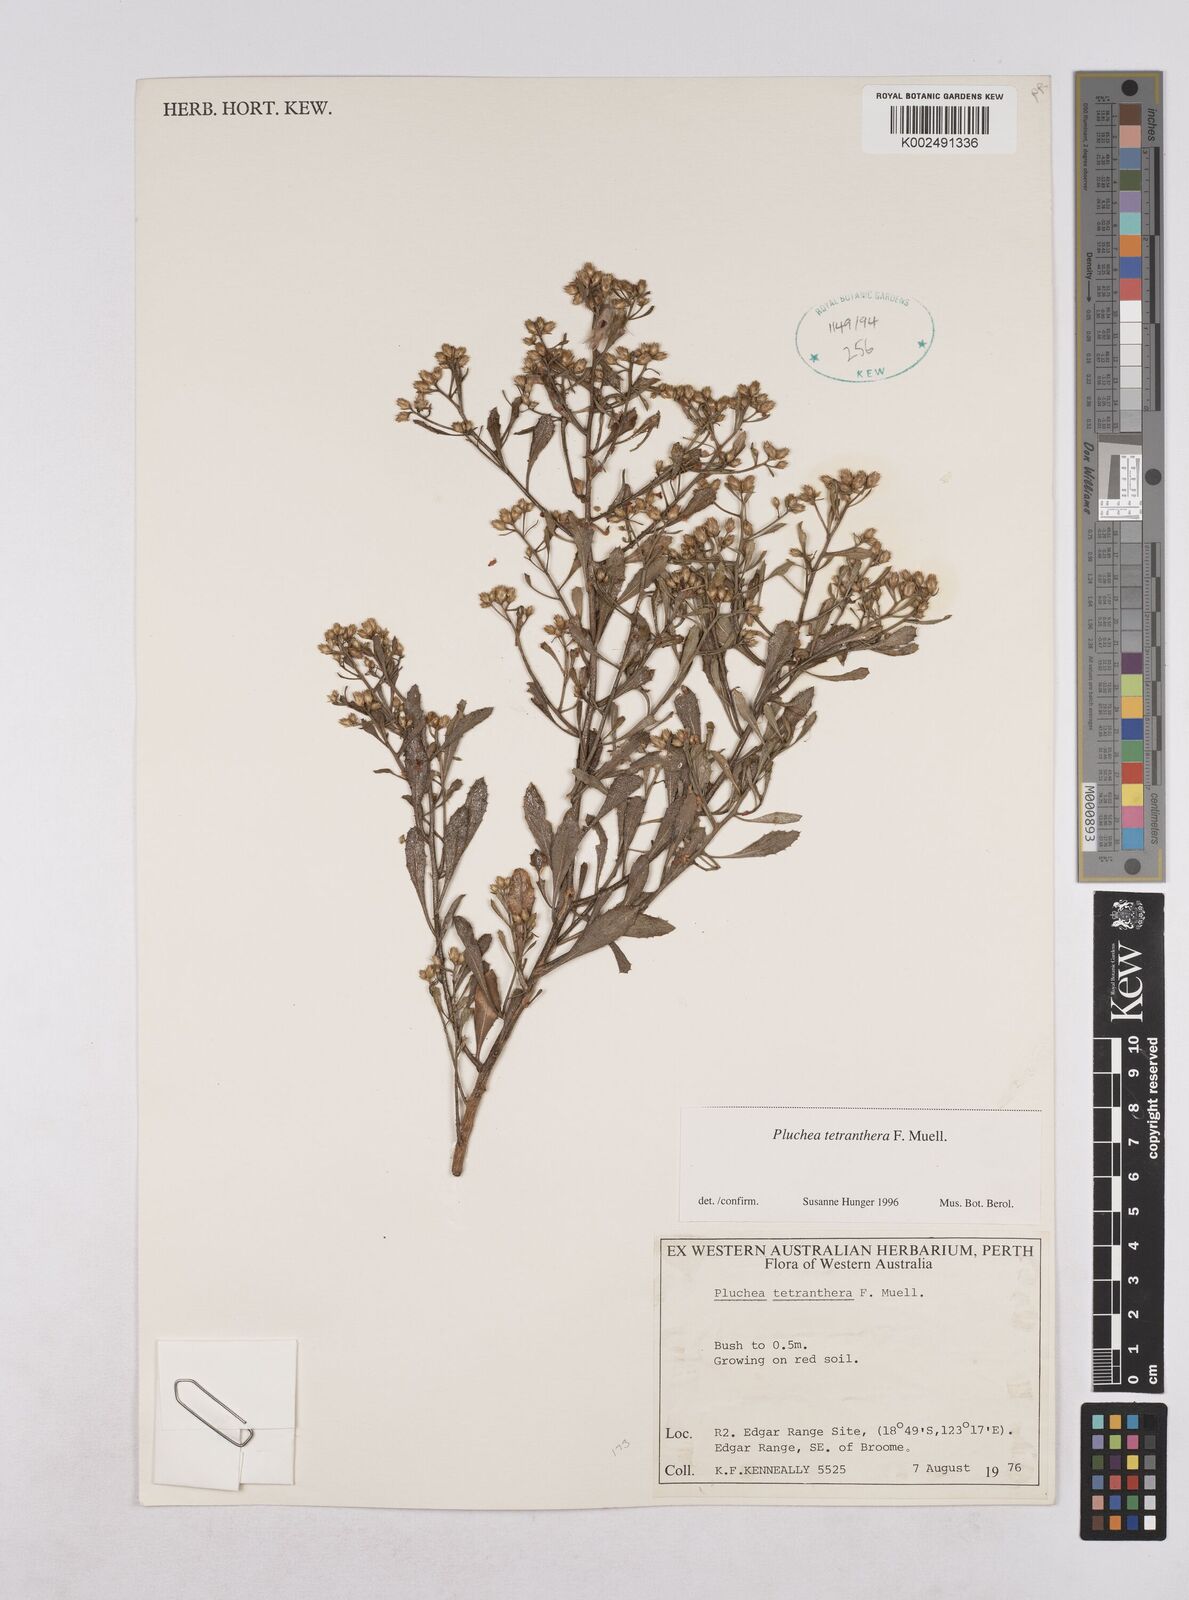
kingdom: Plantae
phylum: Tracheophyta
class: Magnoliopsida
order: Asterales
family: Asteraceae
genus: Pluchea
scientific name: Pluchea tetranthera
